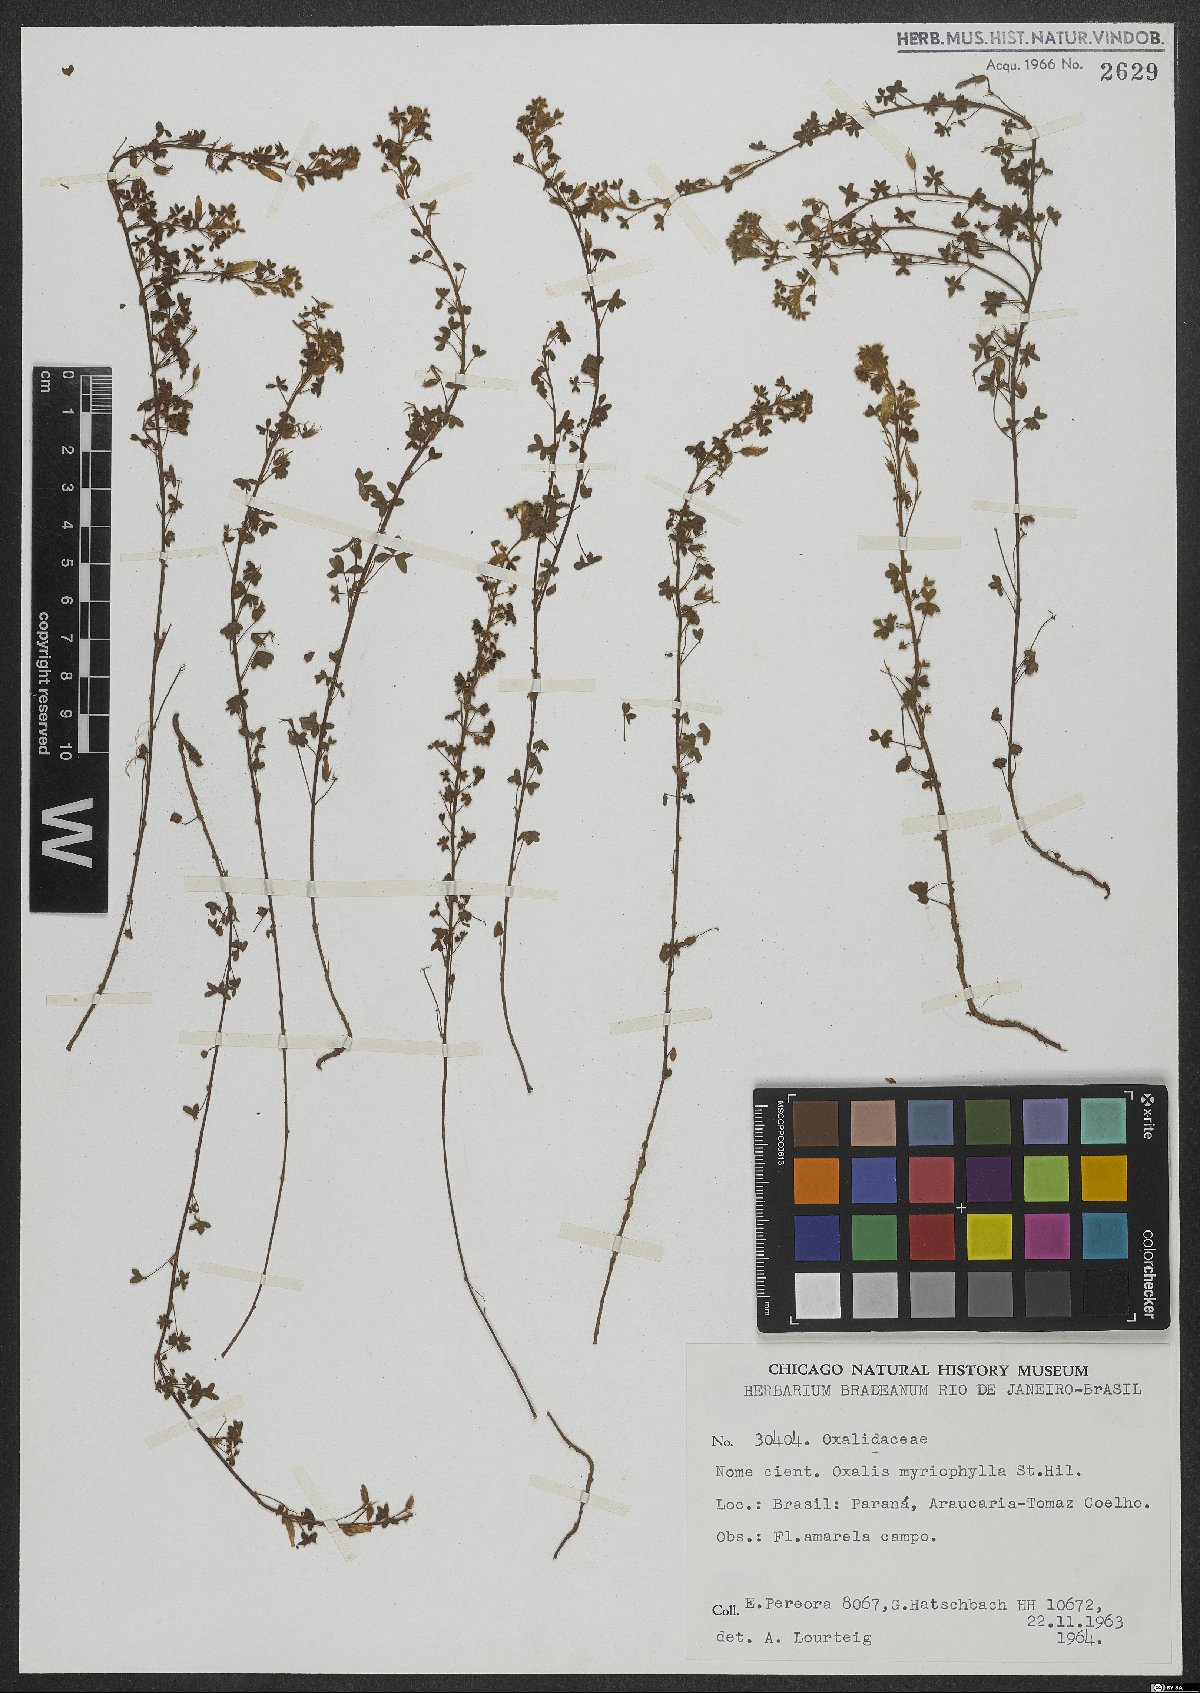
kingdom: Plantae
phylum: Tracheophyta
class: Magnoliopsida
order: Oxalidales
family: Oxalidaceae
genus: Oxalis
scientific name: Oxalis myriophylla
